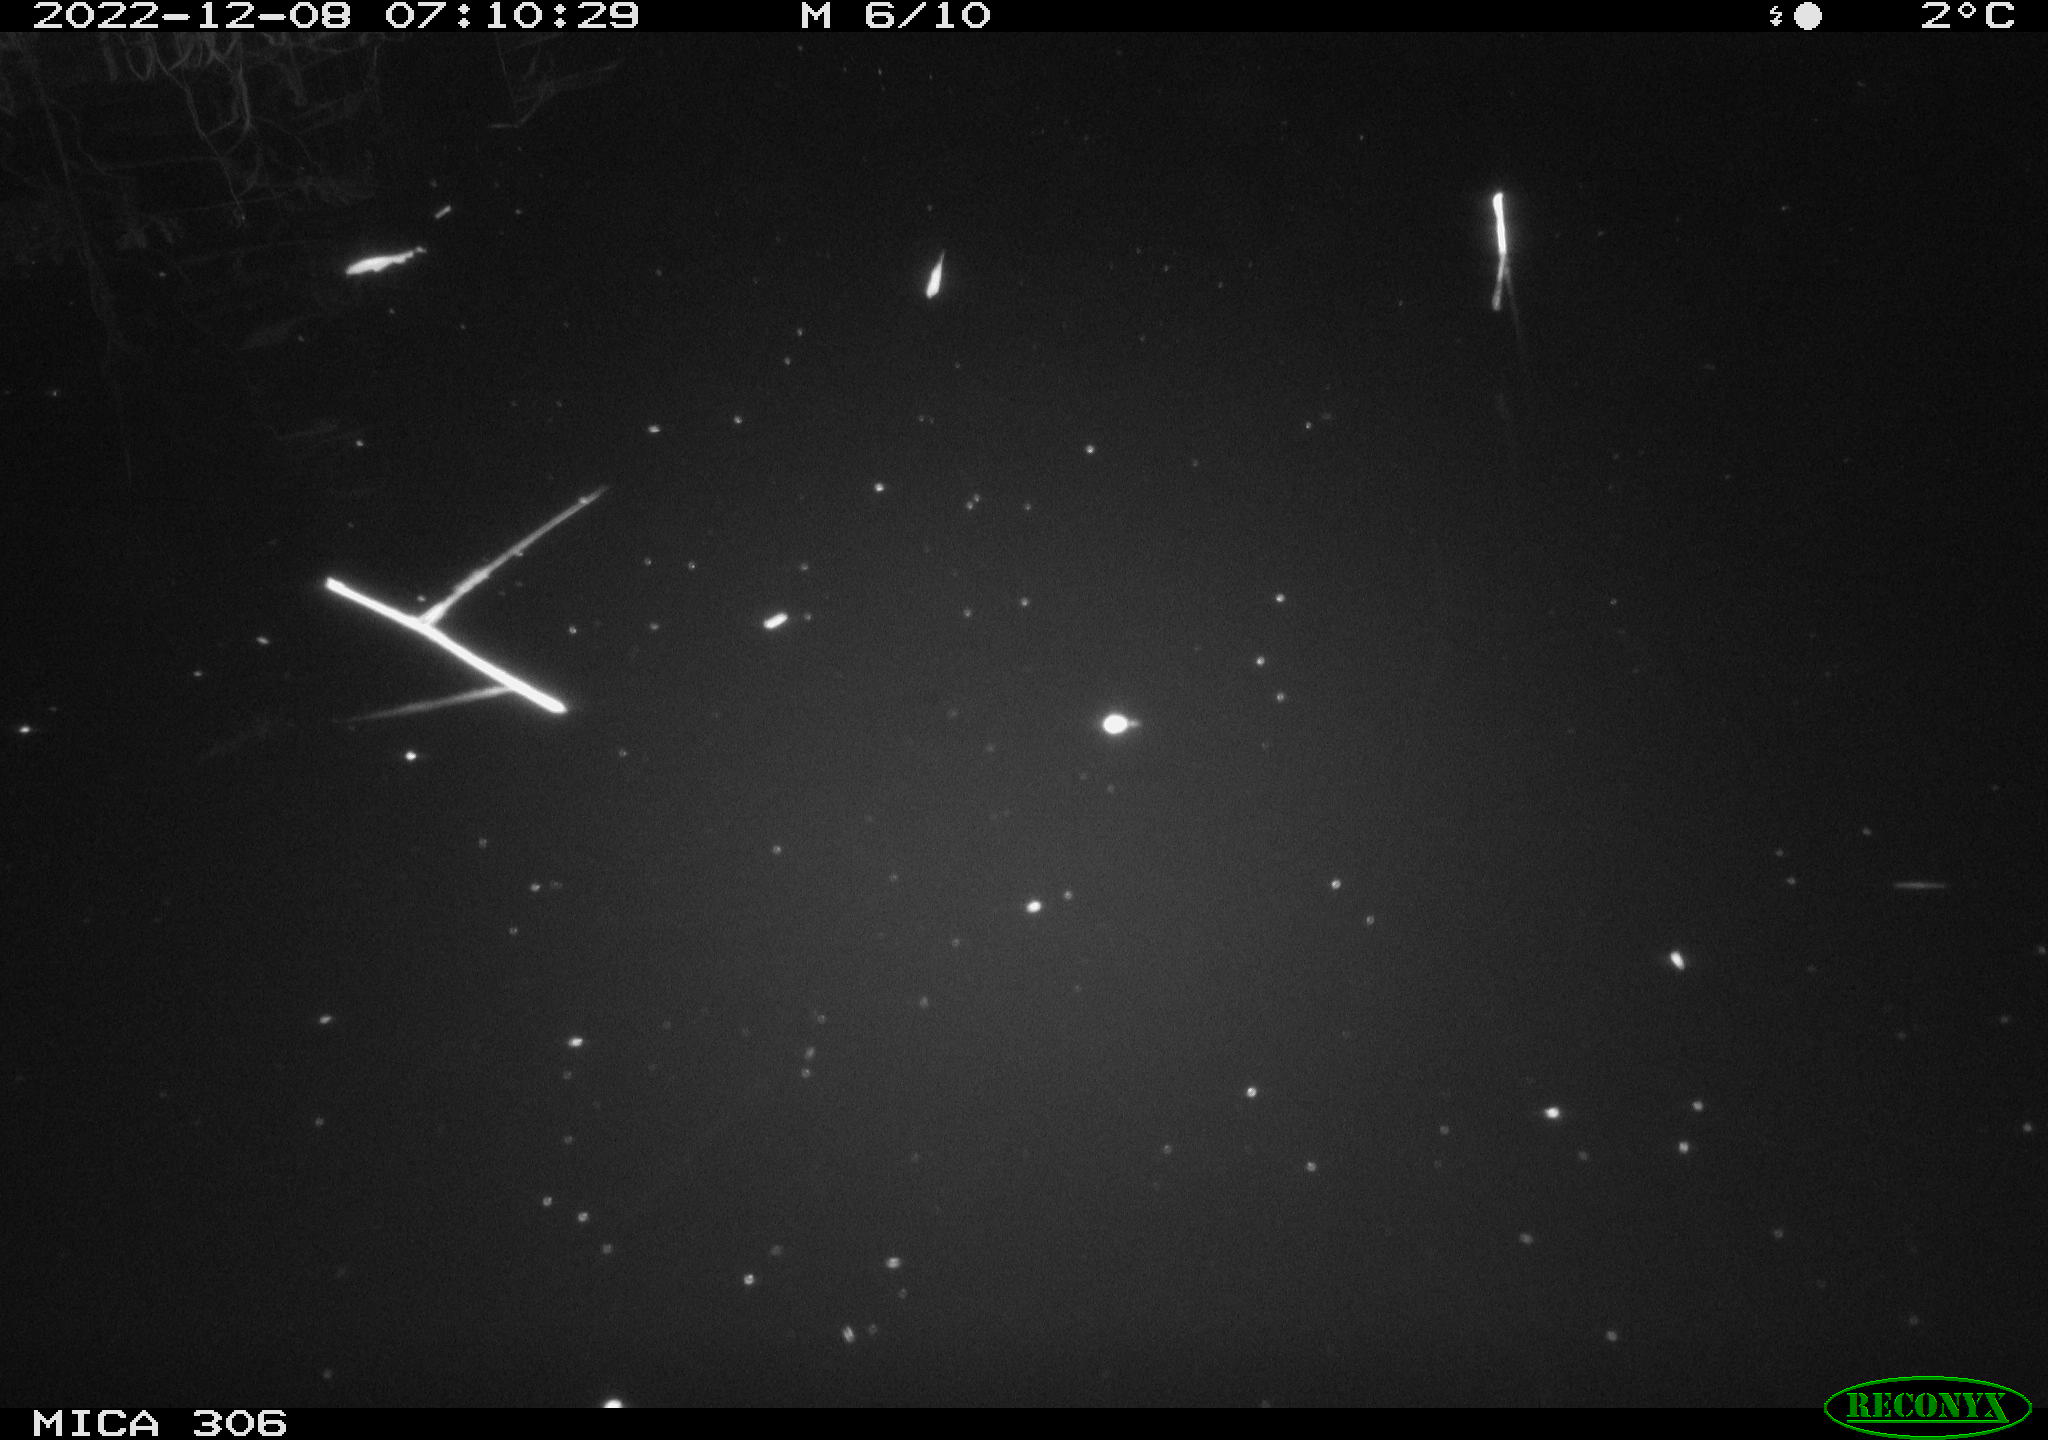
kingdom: Animalia
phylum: Chordata
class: Mammalia
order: Rodentia
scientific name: Rodentia
